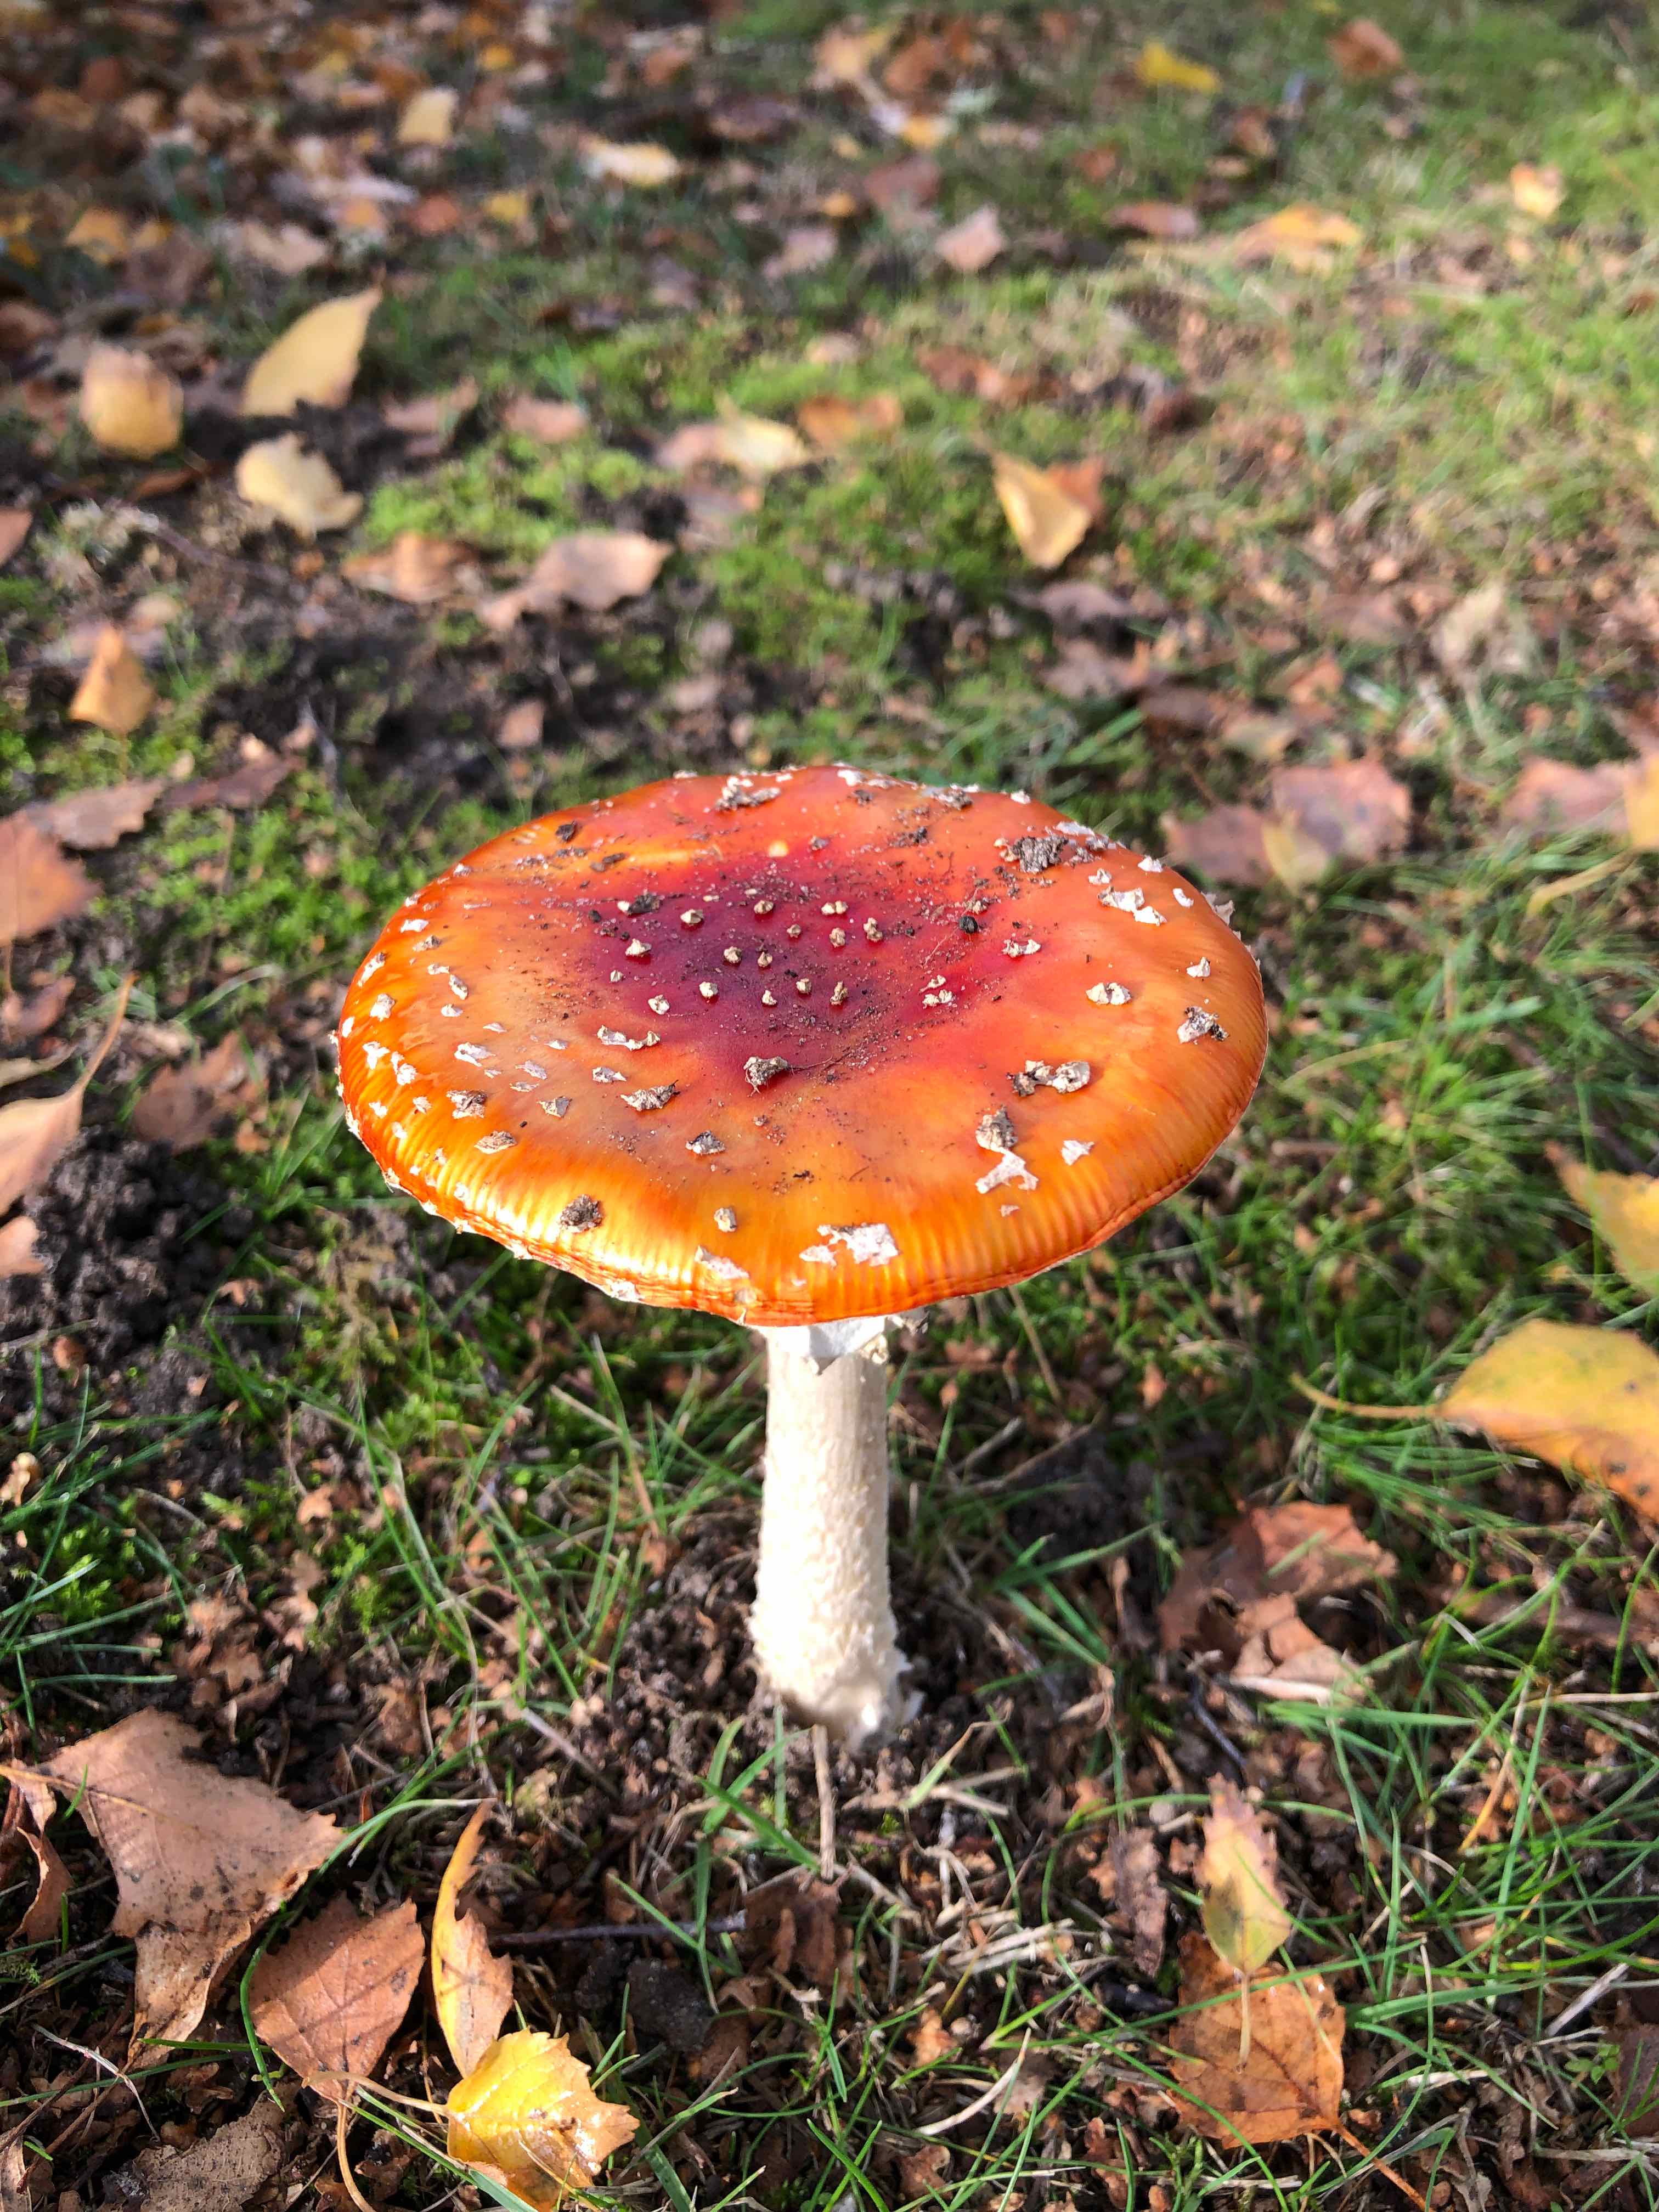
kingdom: Fungi
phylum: Basidiomycota
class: Agaricomycetes
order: Agaricales
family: Amanitaceae
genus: Amanita
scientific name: Amanita muscaria
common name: rød fluesvamp
